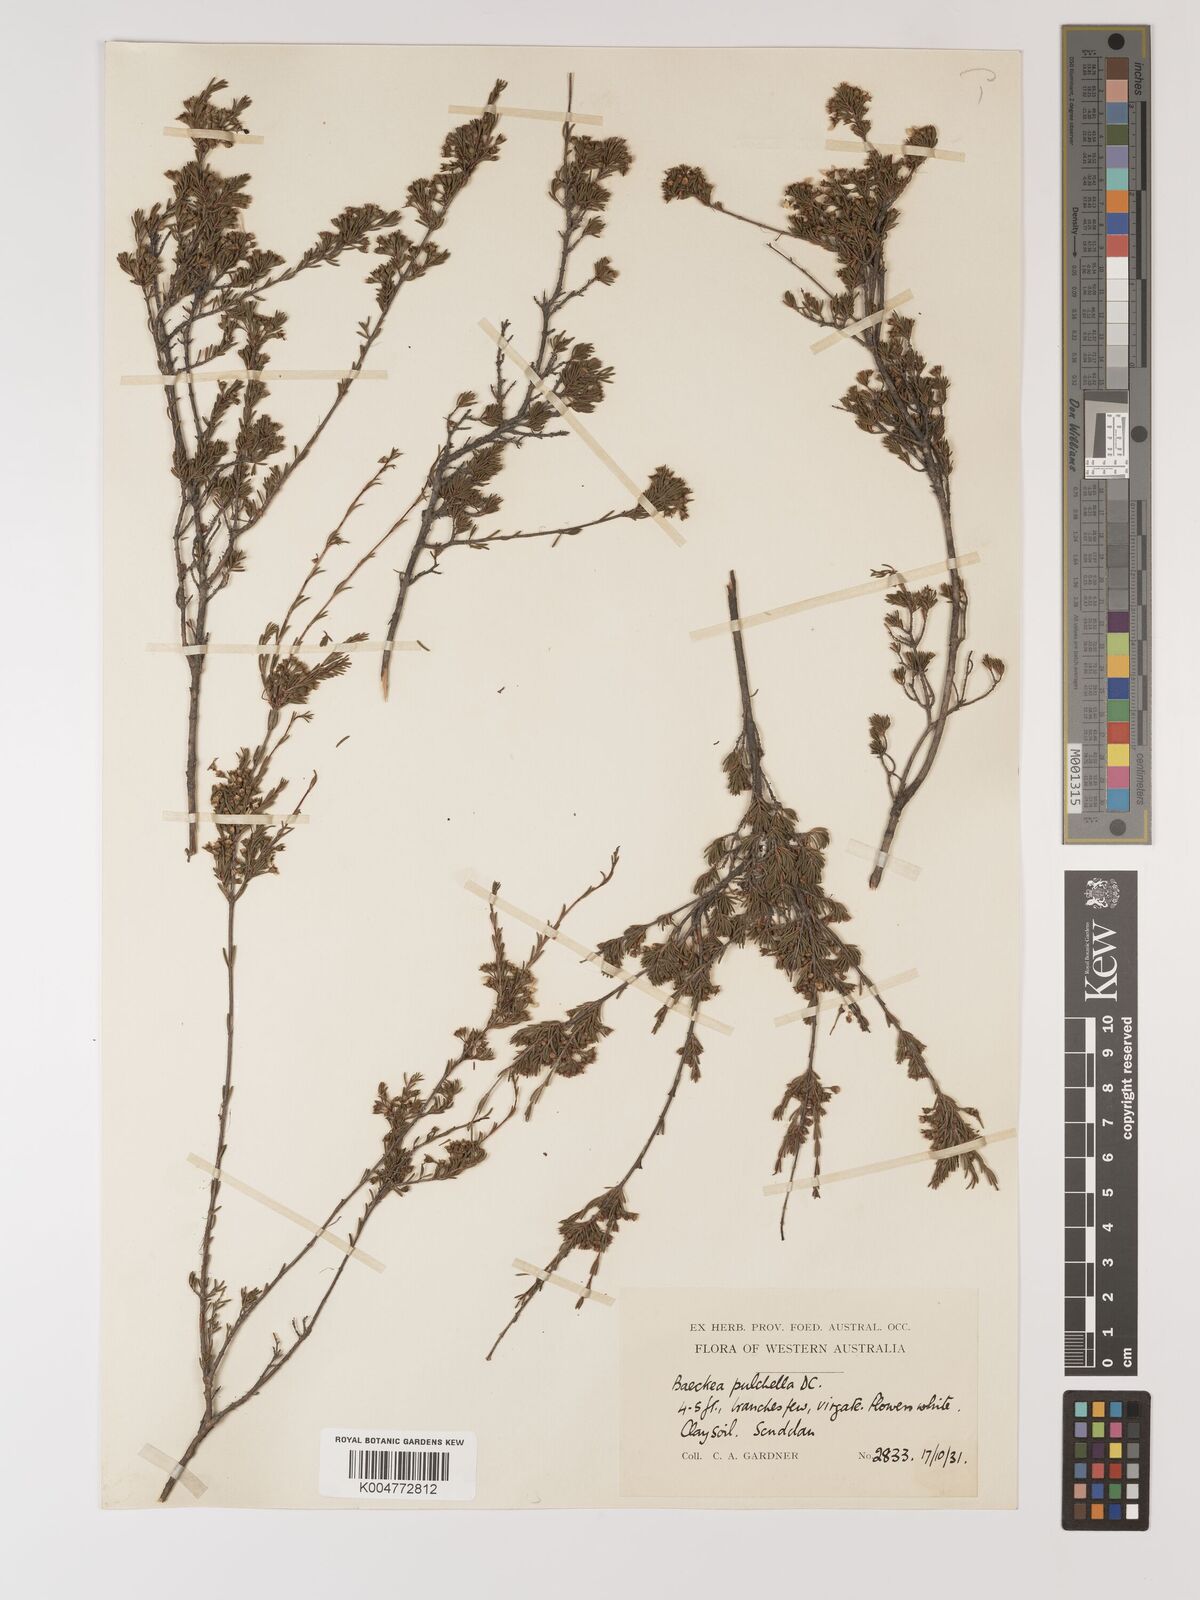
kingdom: Plantae
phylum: Tracheophyta
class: Magnoliopsida
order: Myrtales
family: Myrtaceae
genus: Astartea
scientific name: Astartea pulchella
